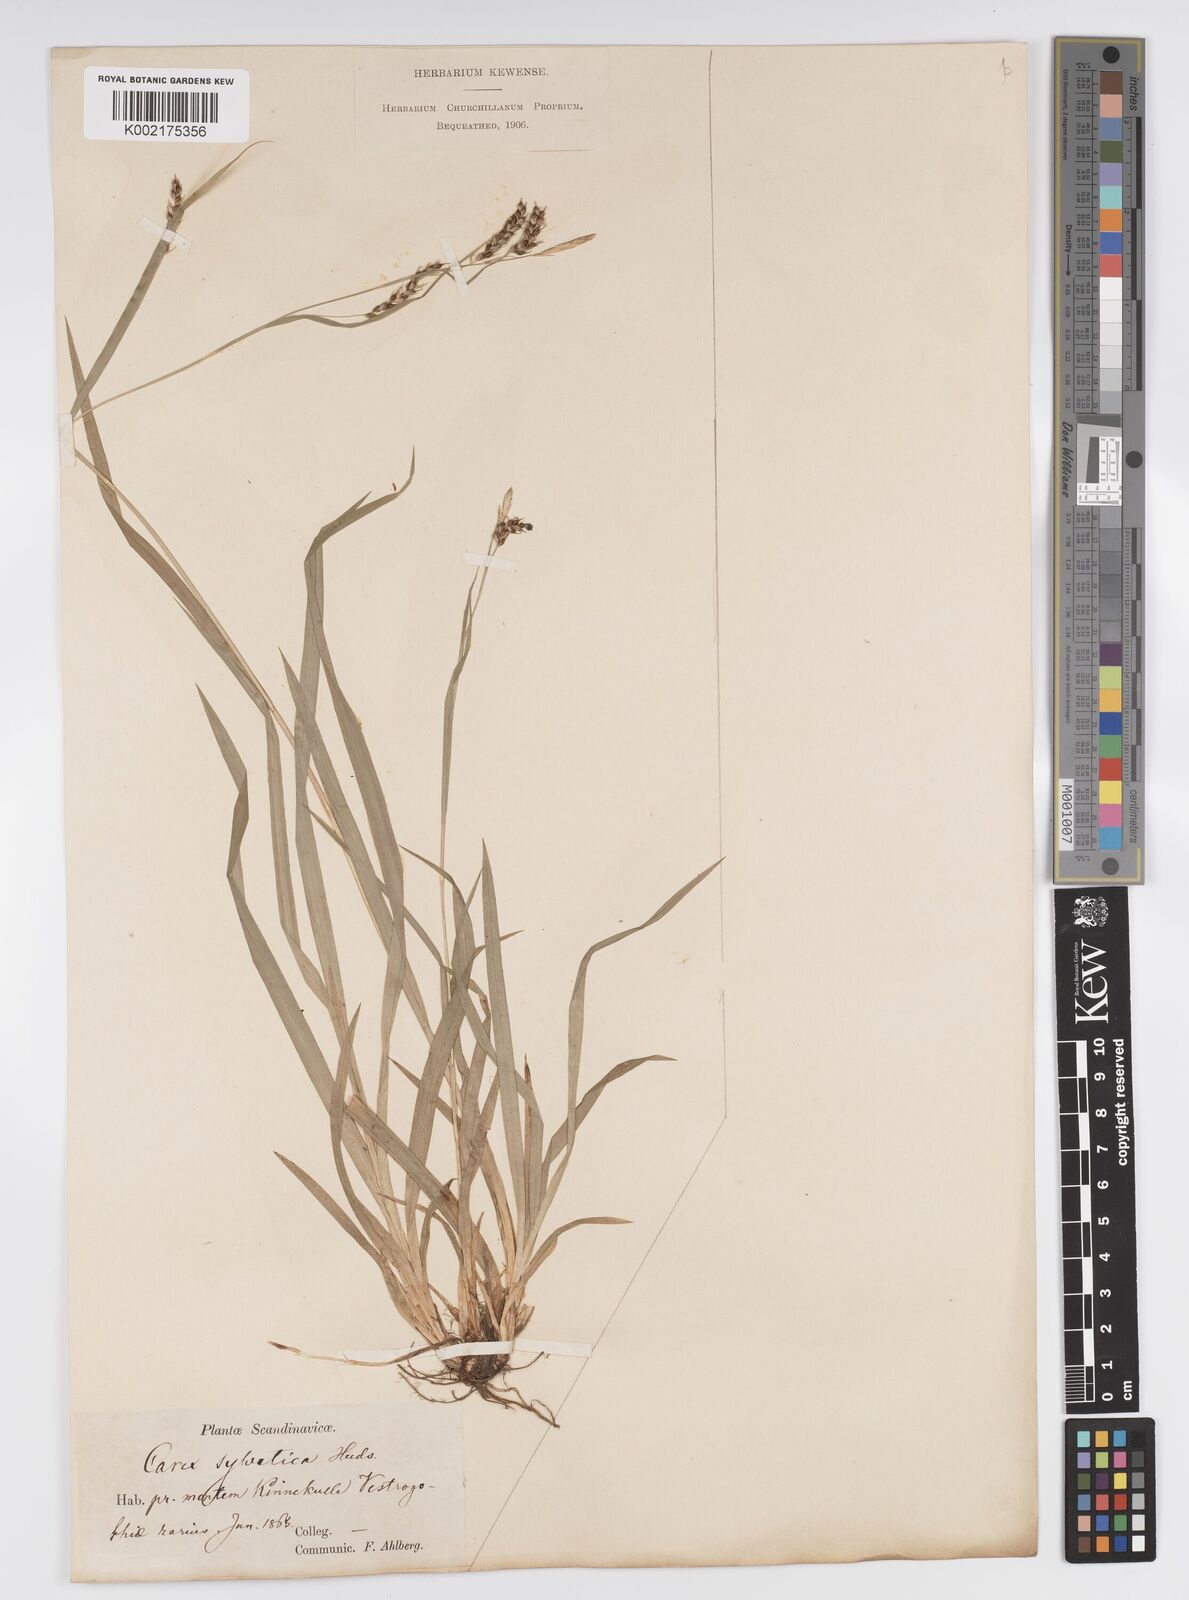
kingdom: Plantae
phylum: Tracheophyta
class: Liliopsida
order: Poales
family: Cyperaceae
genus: Carex
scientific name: Carex sylvatica
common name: Wood-sedge
